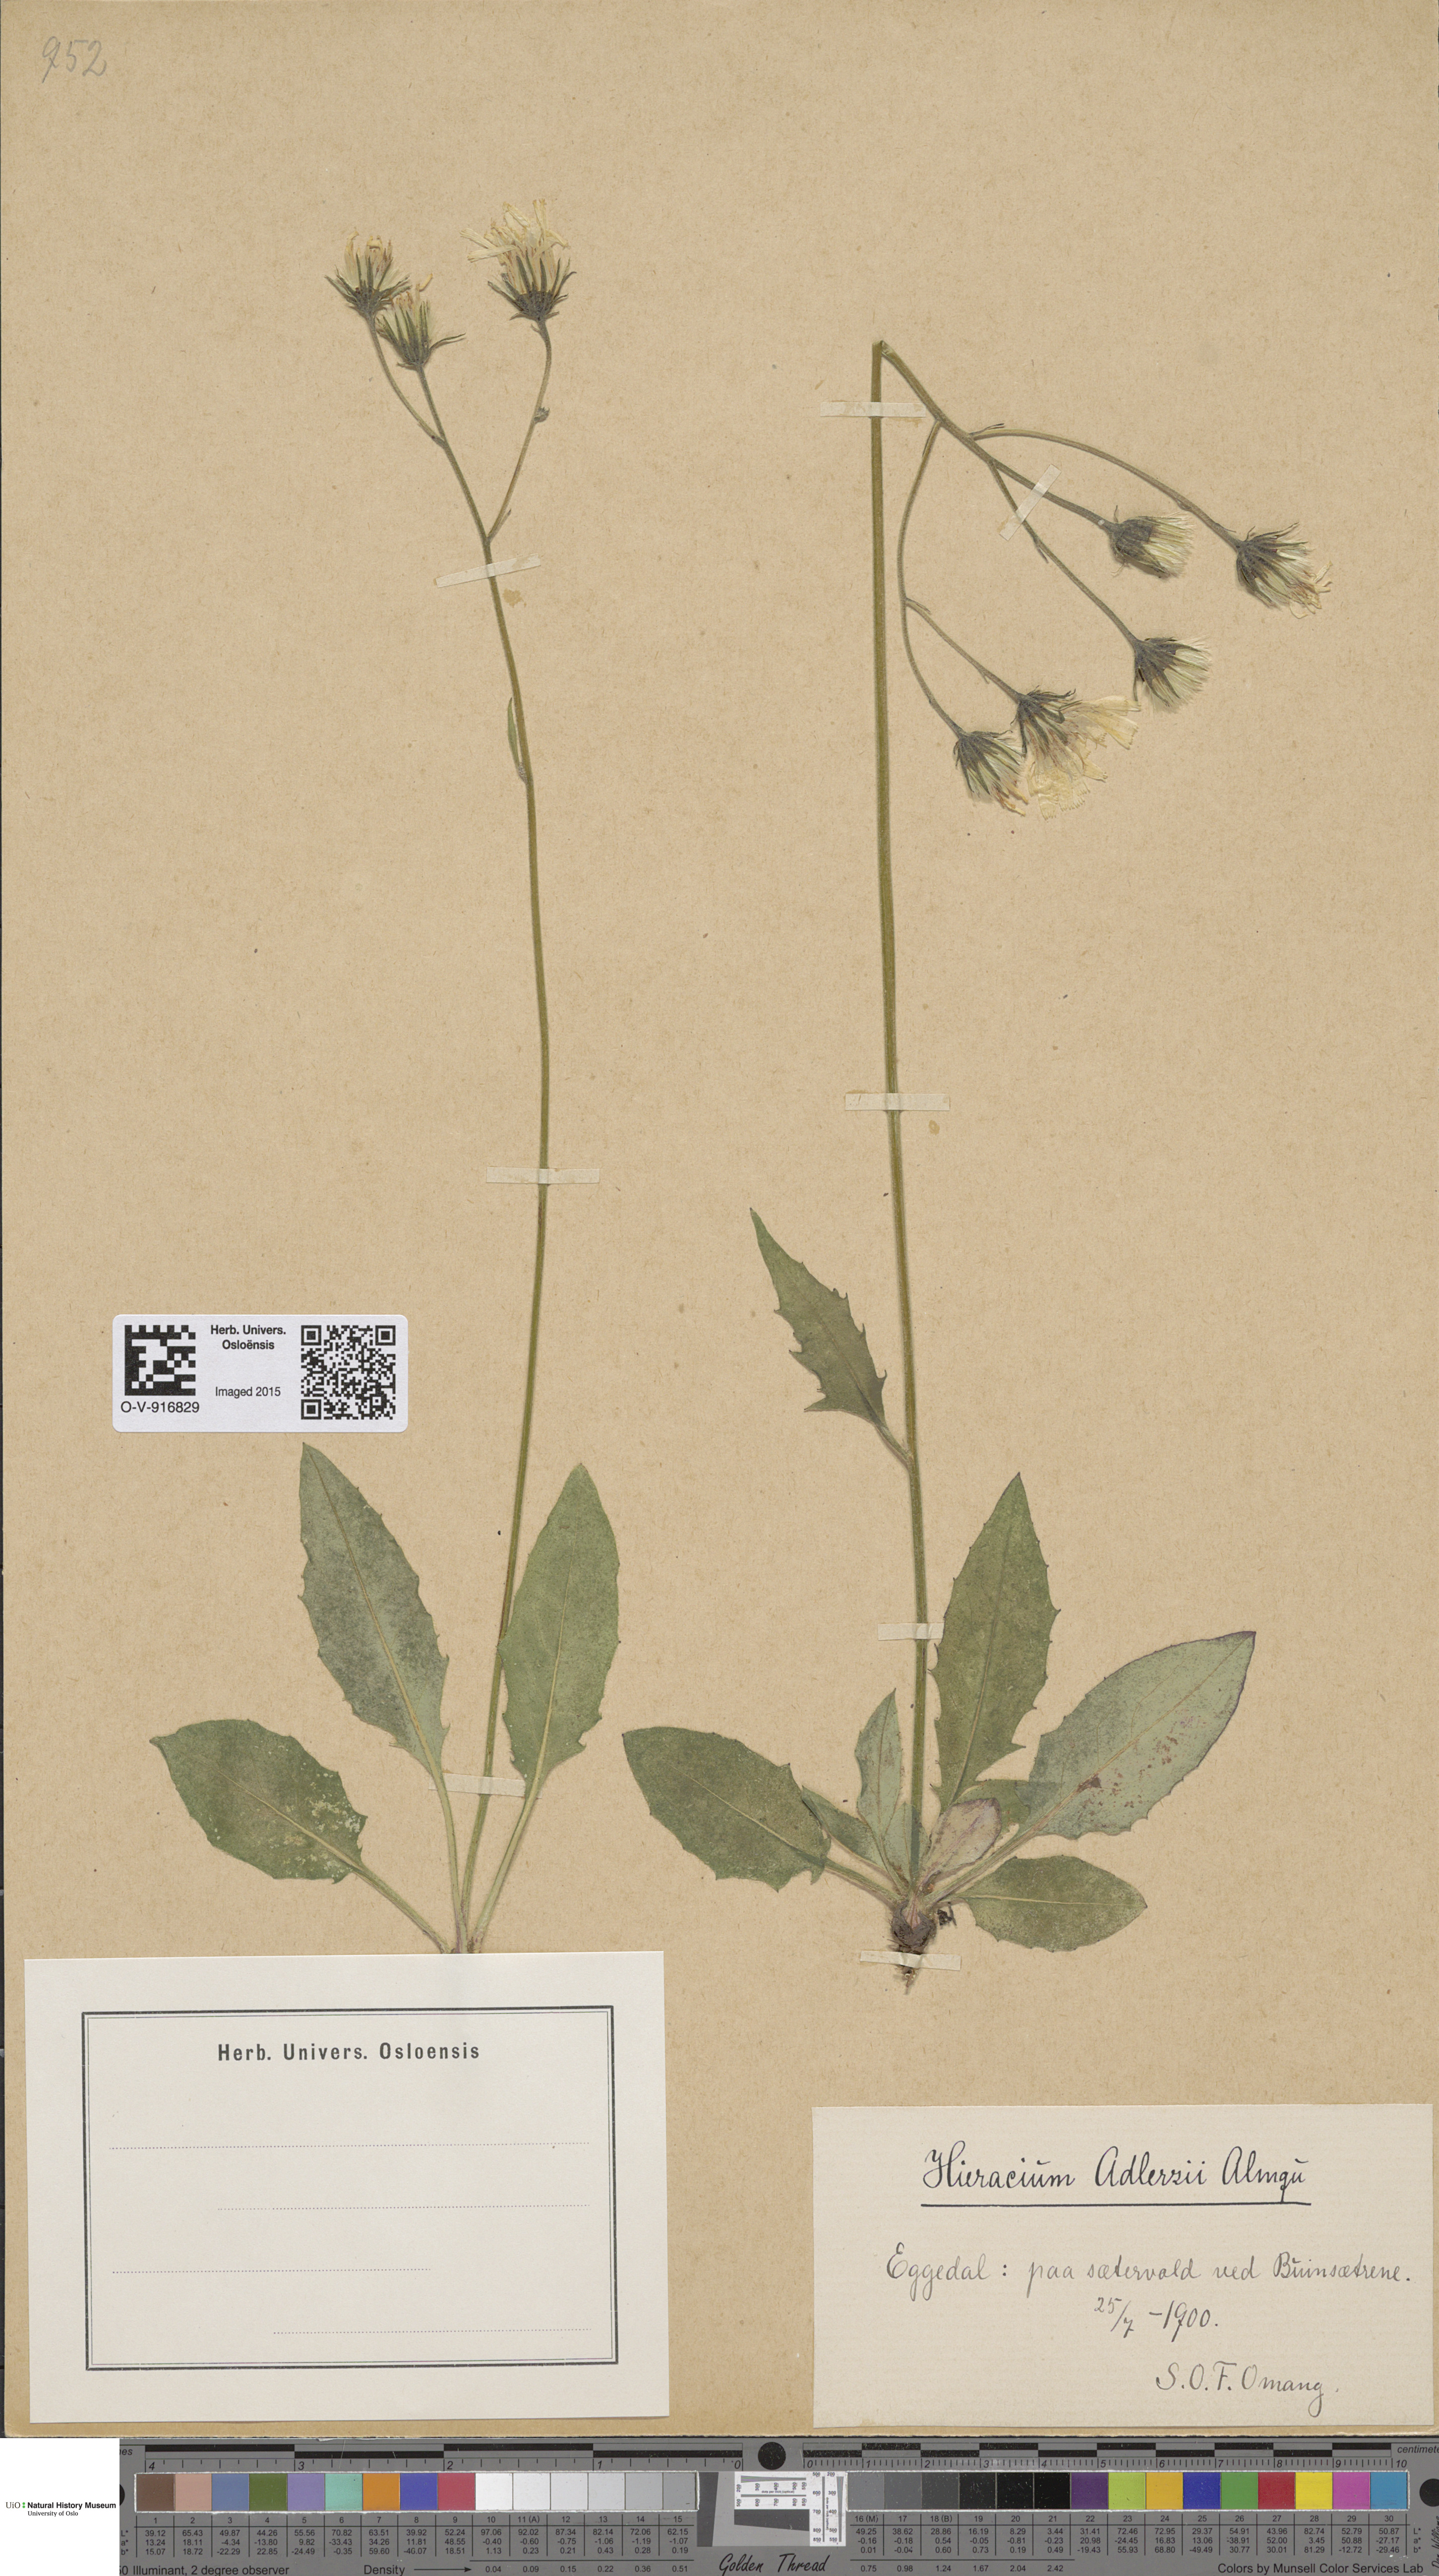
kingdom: Plantae
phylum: Tracheophyta
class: Magnoliopsida
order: Asterales
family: Asteraceae
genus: Hieracium
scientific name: Hieracium
